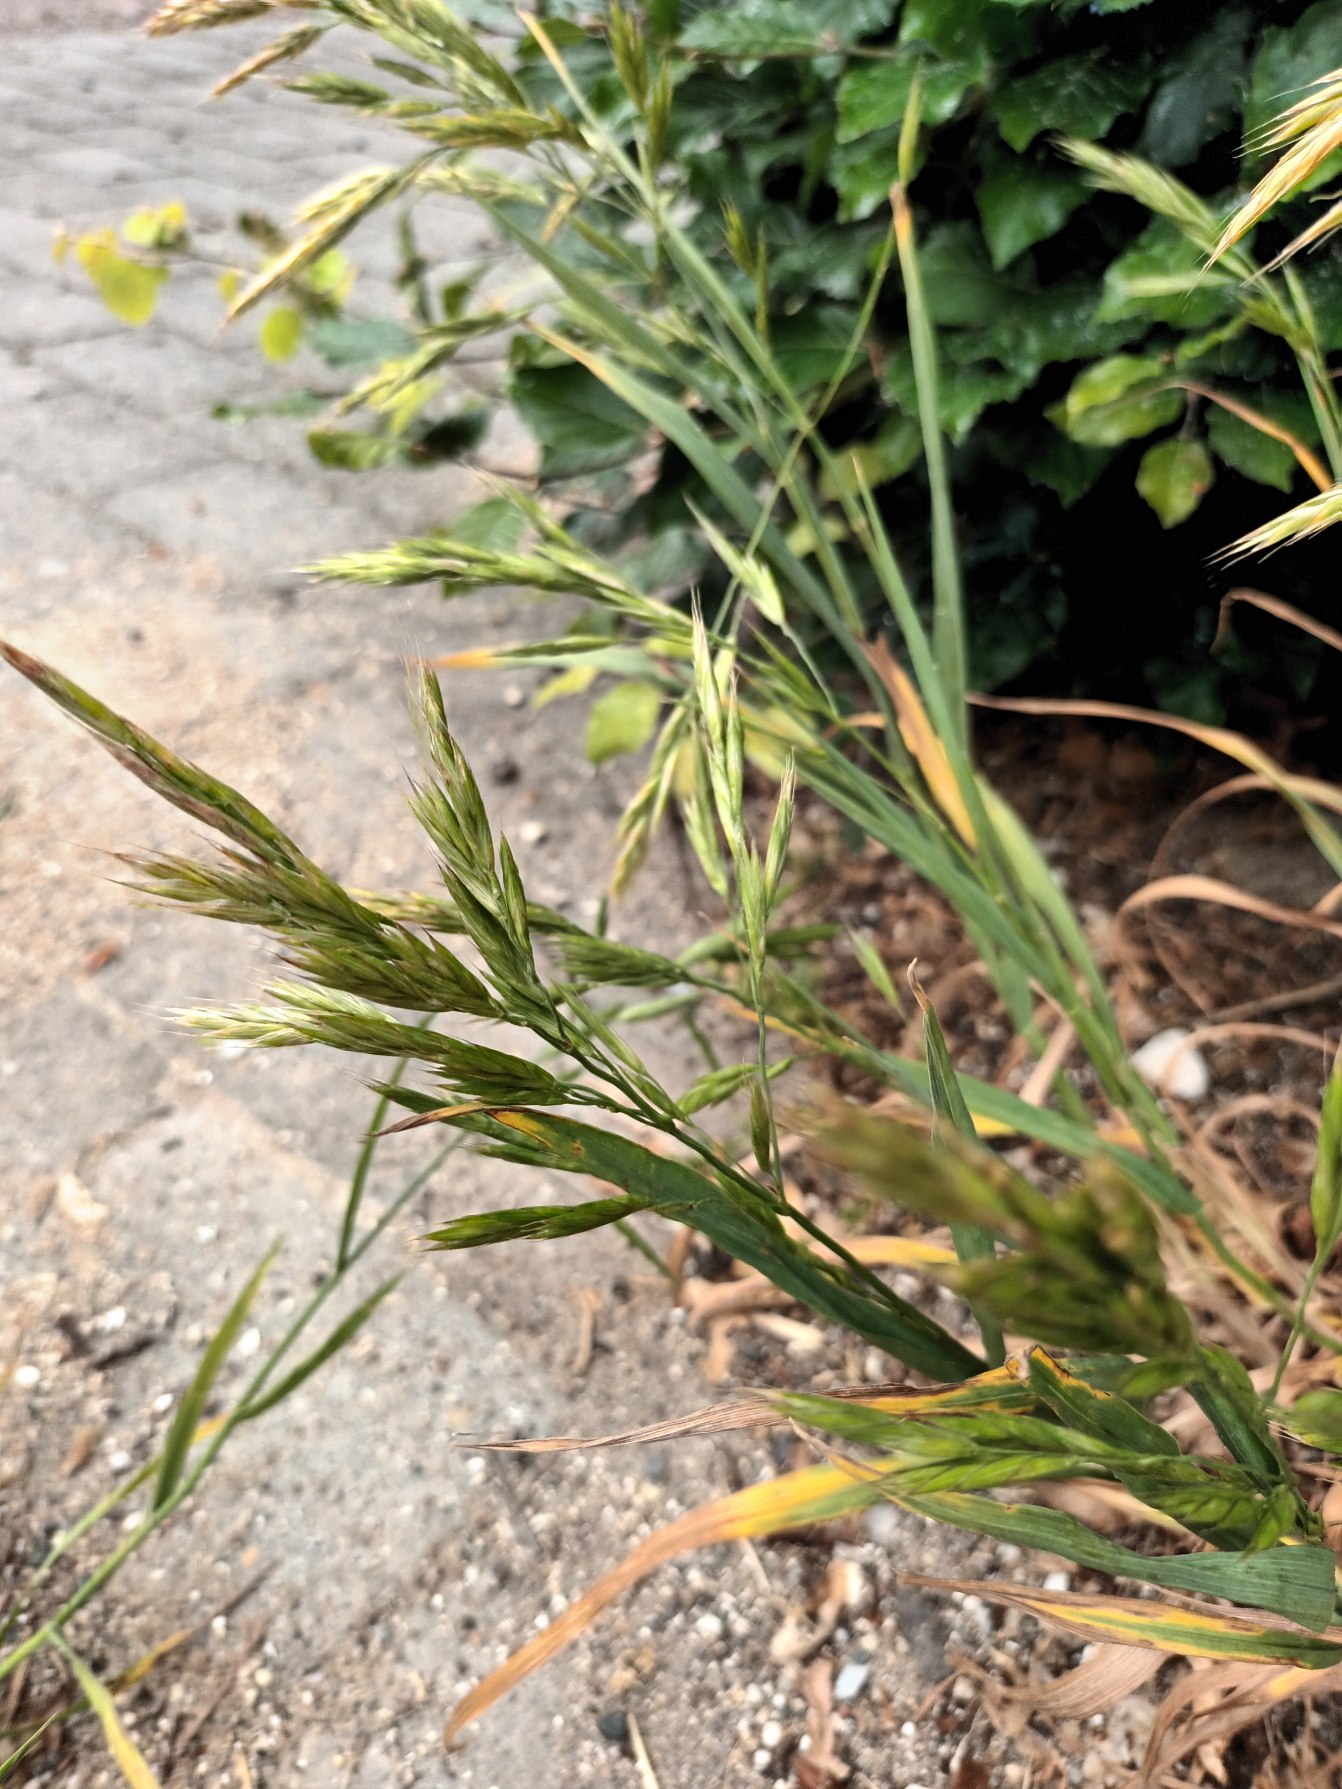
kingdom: Plantae
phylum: Tracheophyta
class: Liliopsida
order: Poales
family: Poaceae
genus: Bromus
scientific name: Bromus sitchensis
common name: Sitka-hejre
